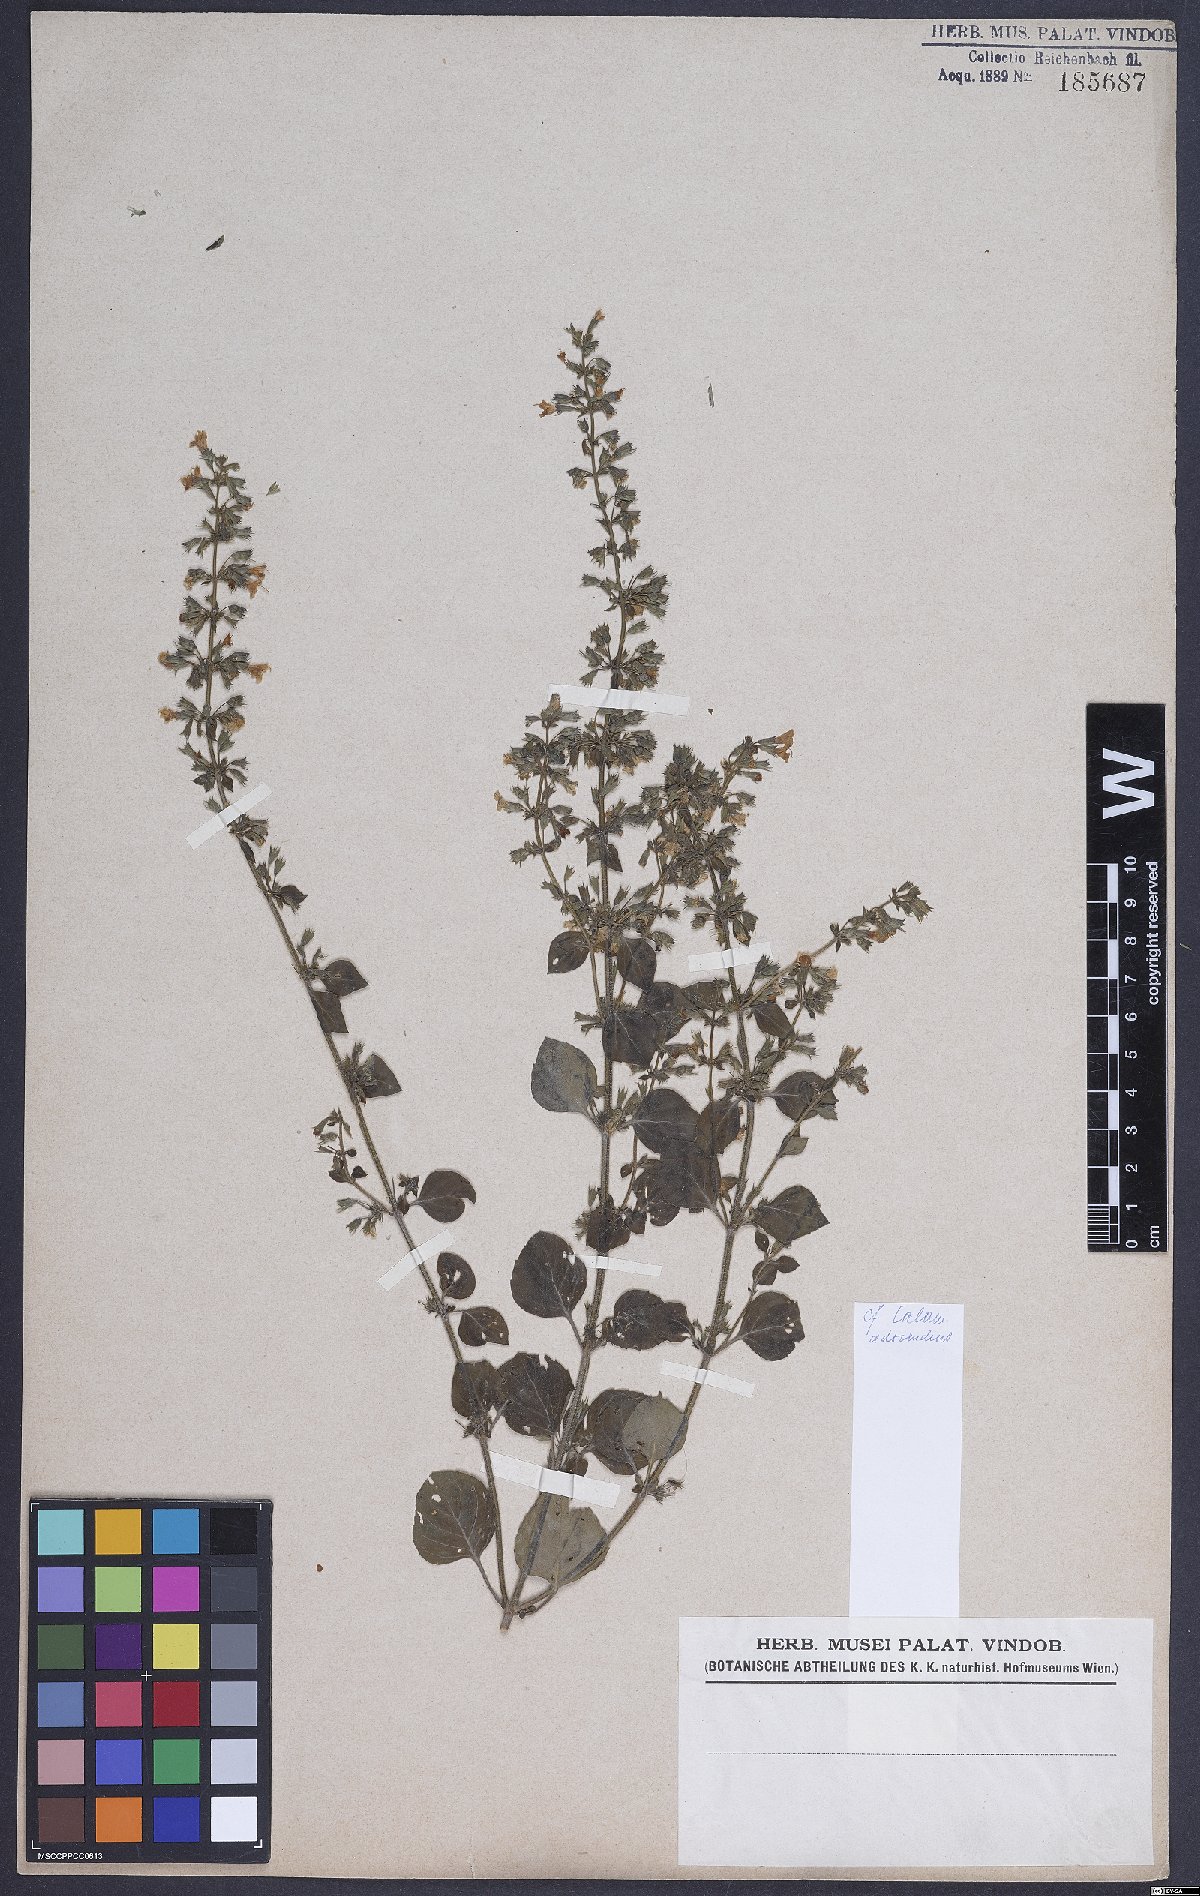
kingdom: Plantae
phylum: Tracheophyta
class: Magnoliopsida
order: Lamiales
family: Lamiaceae
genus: Clinopodium
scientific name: Clinopodium menthifolium
